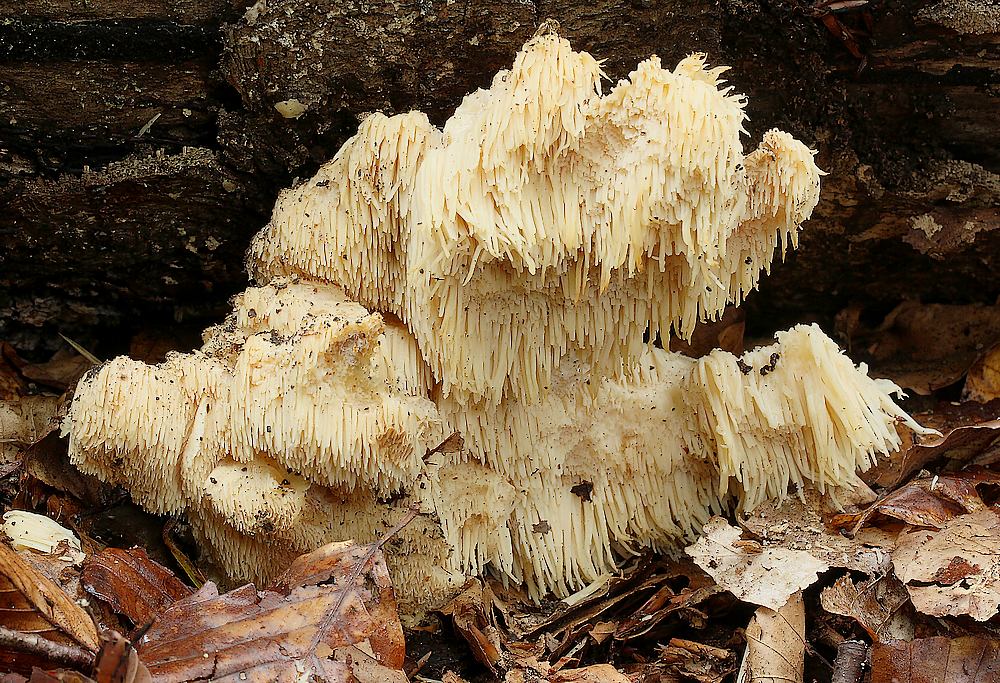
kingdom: Fungi
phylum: Basidiomycota
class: Agaricomycetes
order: Russulales
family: Hericiaceae
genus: Hericium
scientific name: Hericium cirrhatum
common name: børstepigsvamp
